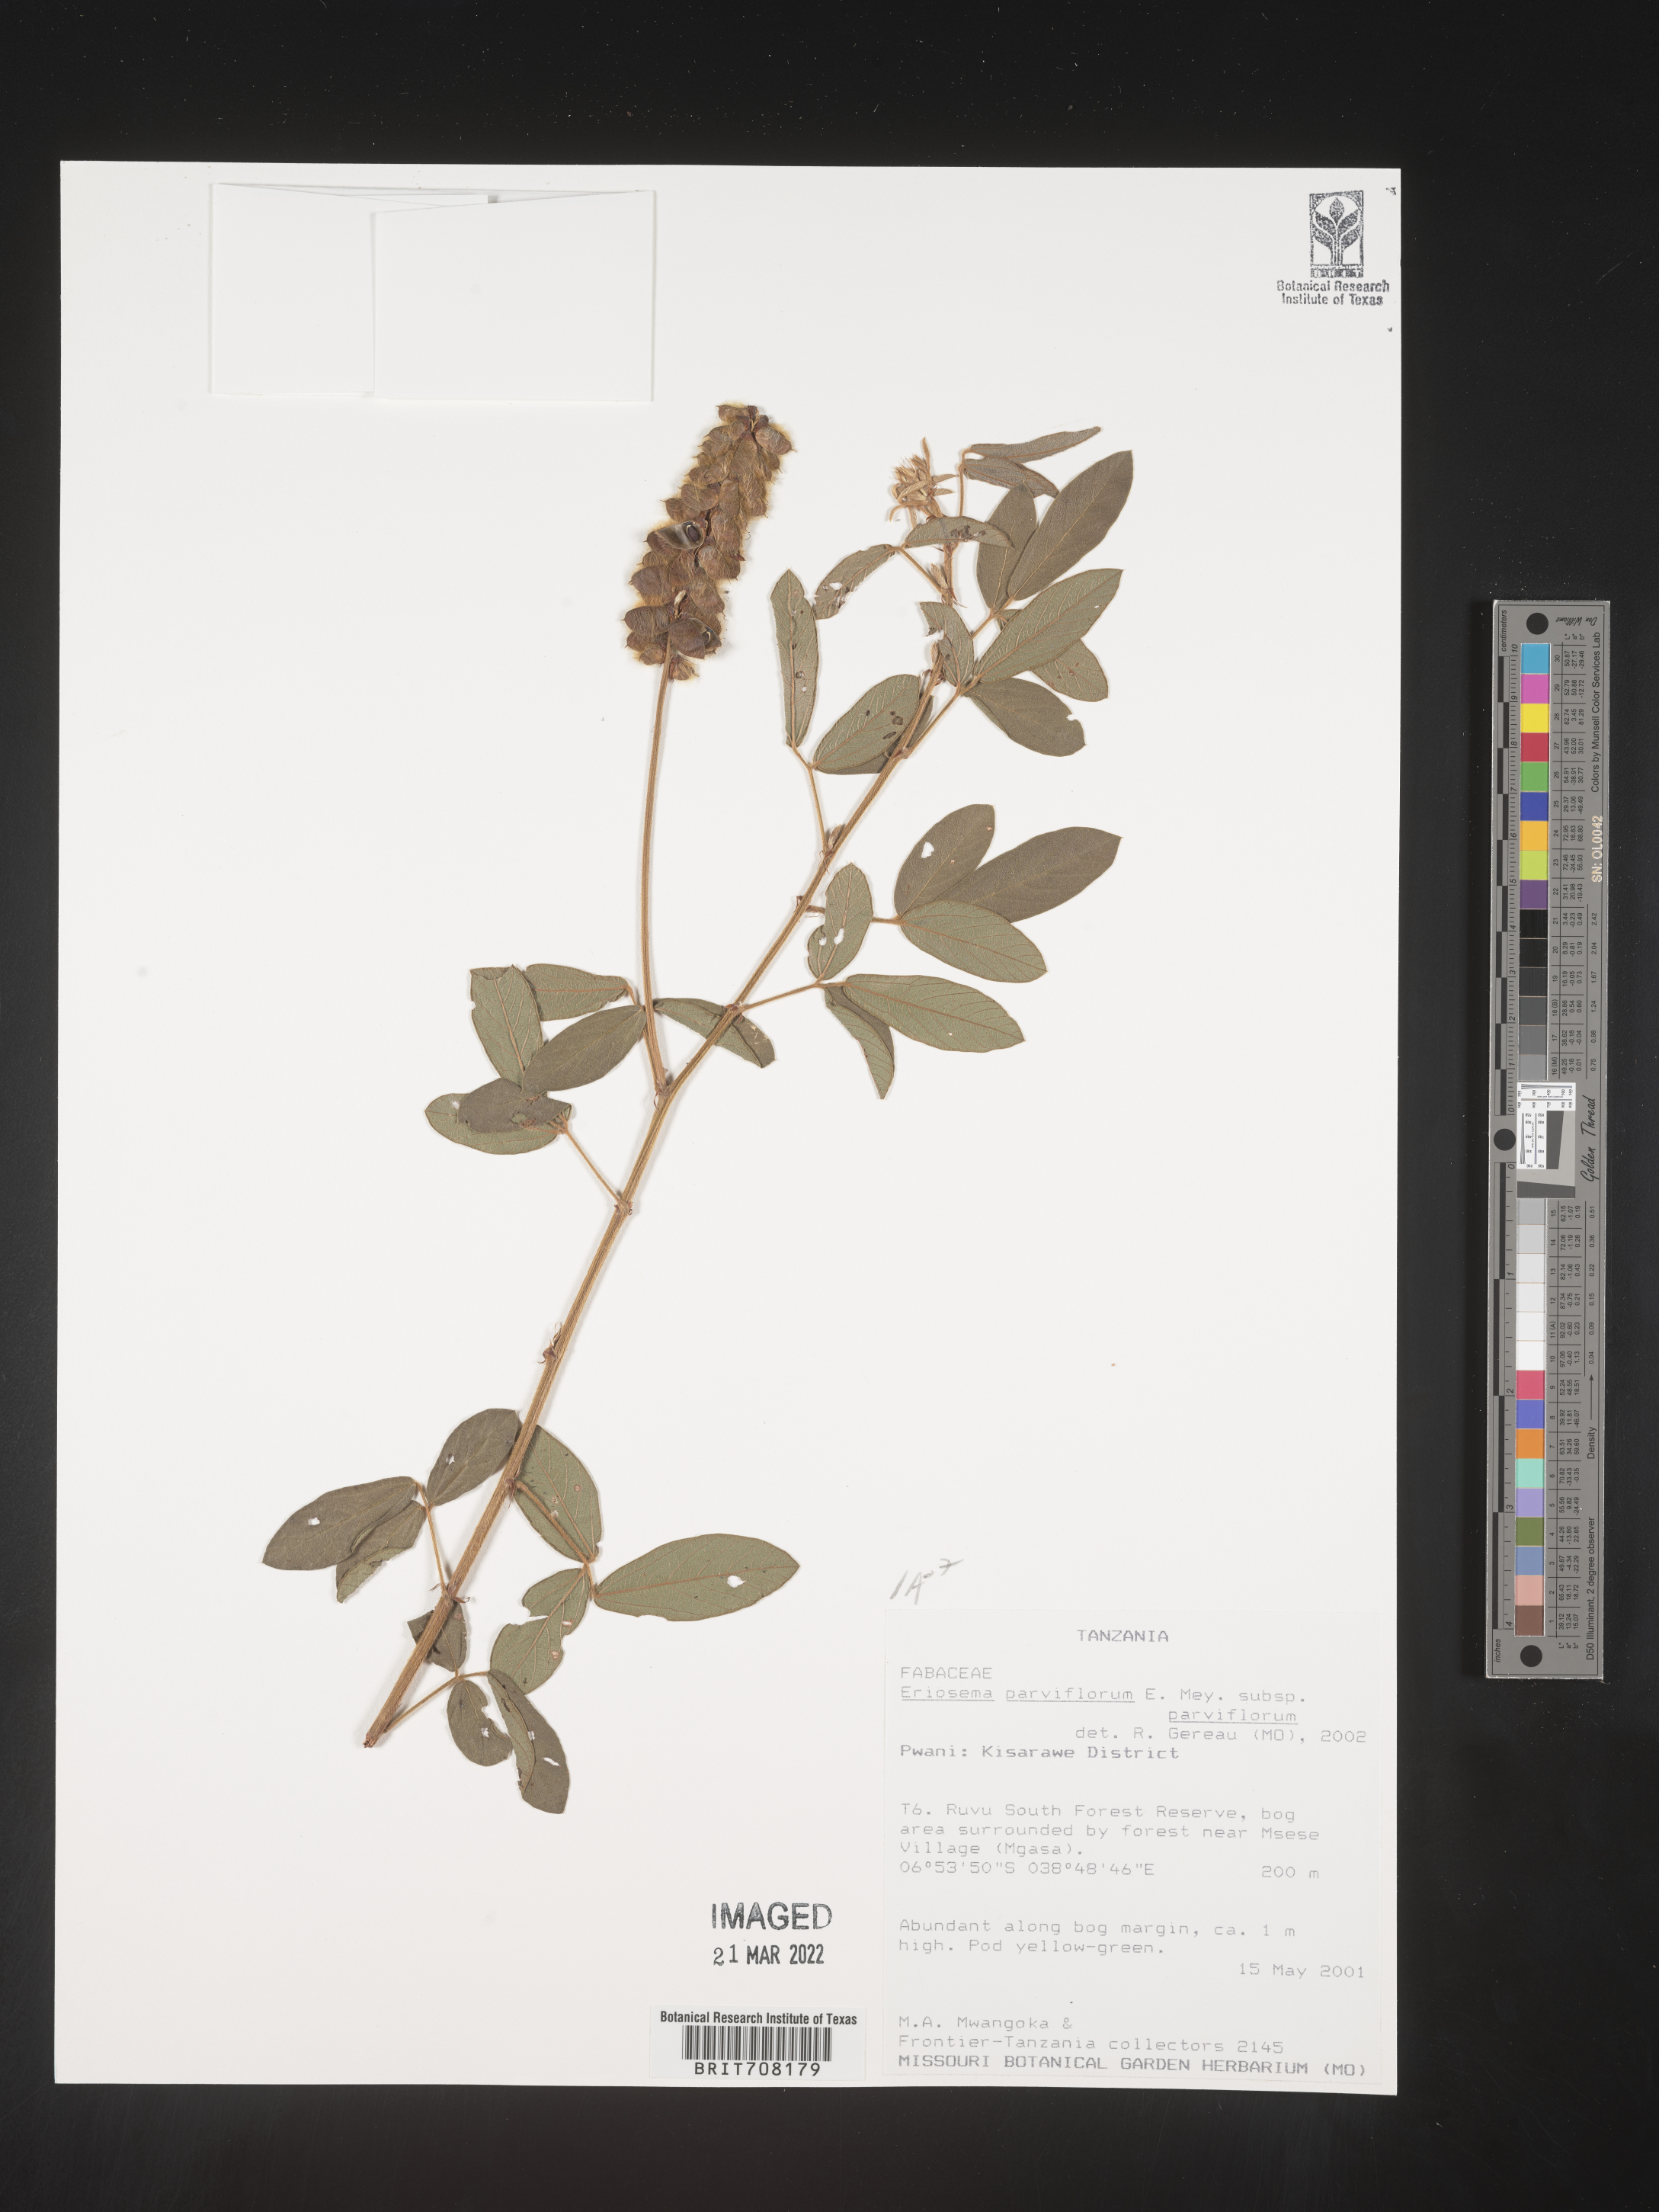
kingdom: Plantae
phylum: Tracheophyta
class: Magnoliopsida
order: Fabales
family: Fabaceae
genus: Eriosema
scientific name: Eriosema
